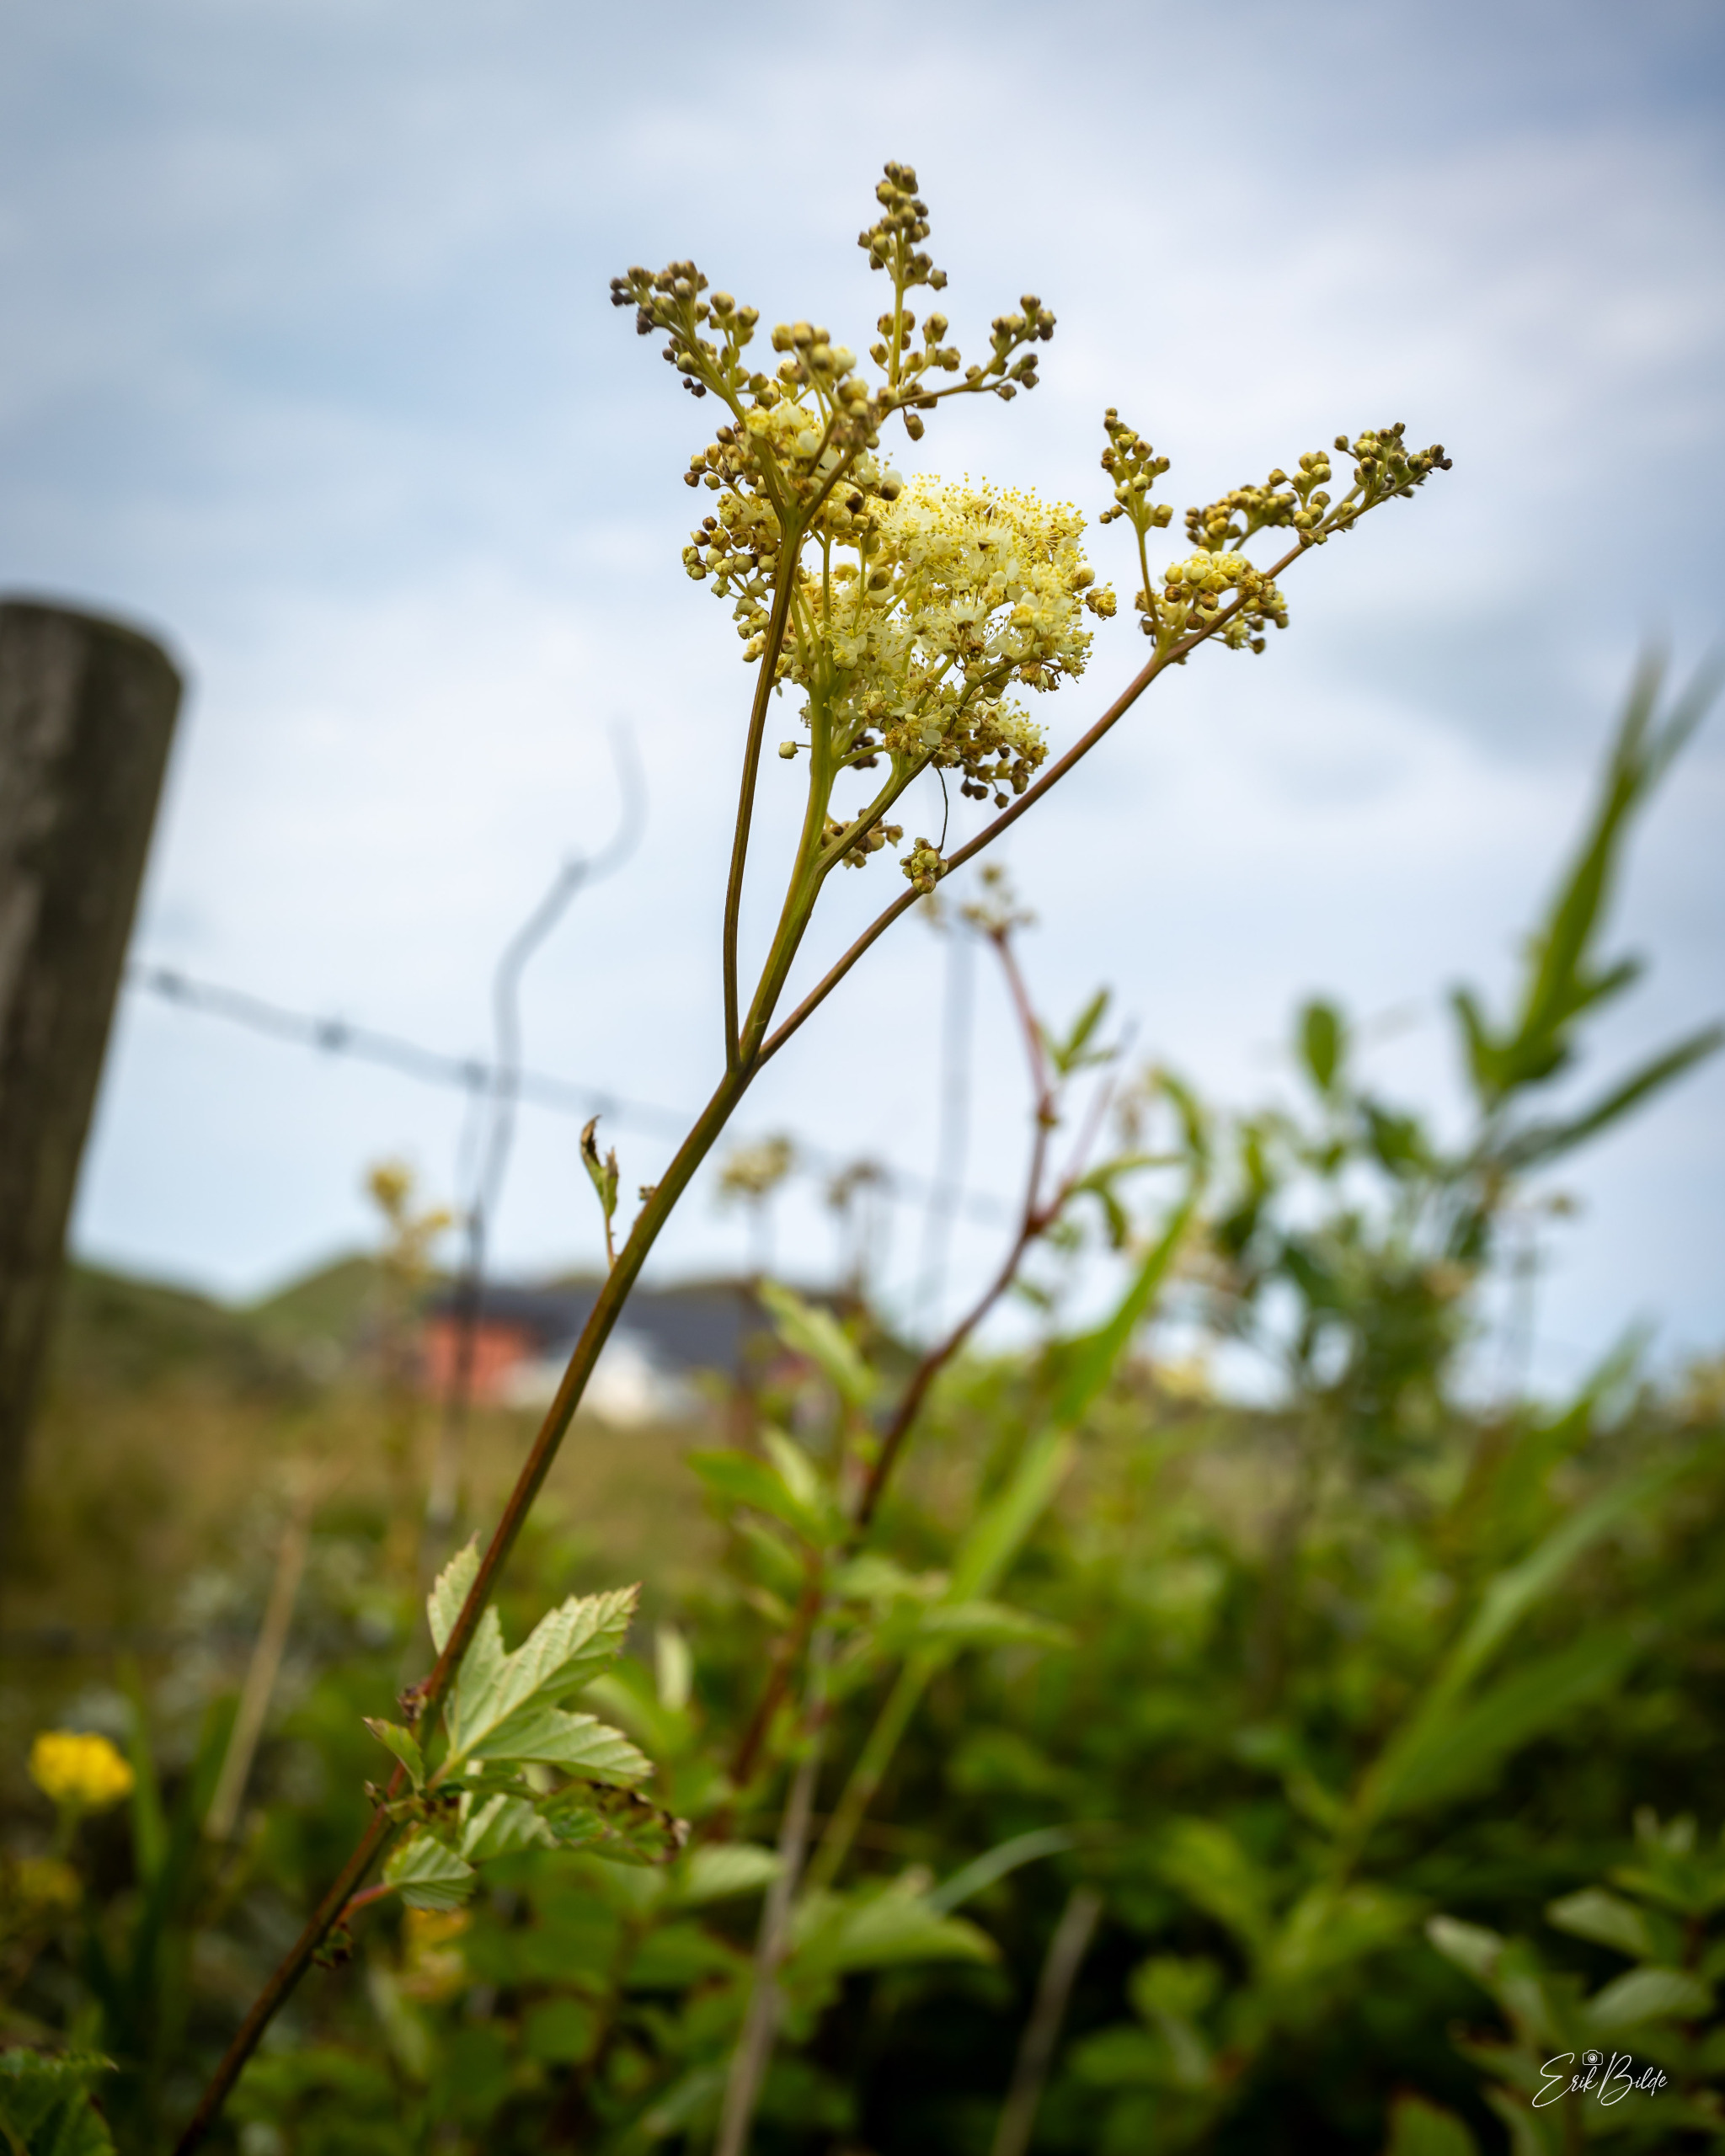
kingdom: Plantae
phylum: Tracheophyta
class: Magnoliopsida
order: Rosales
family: Rosaceae
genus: Filipendula
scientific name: Filipendula ulmaria
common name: Almindelig mjødurt
